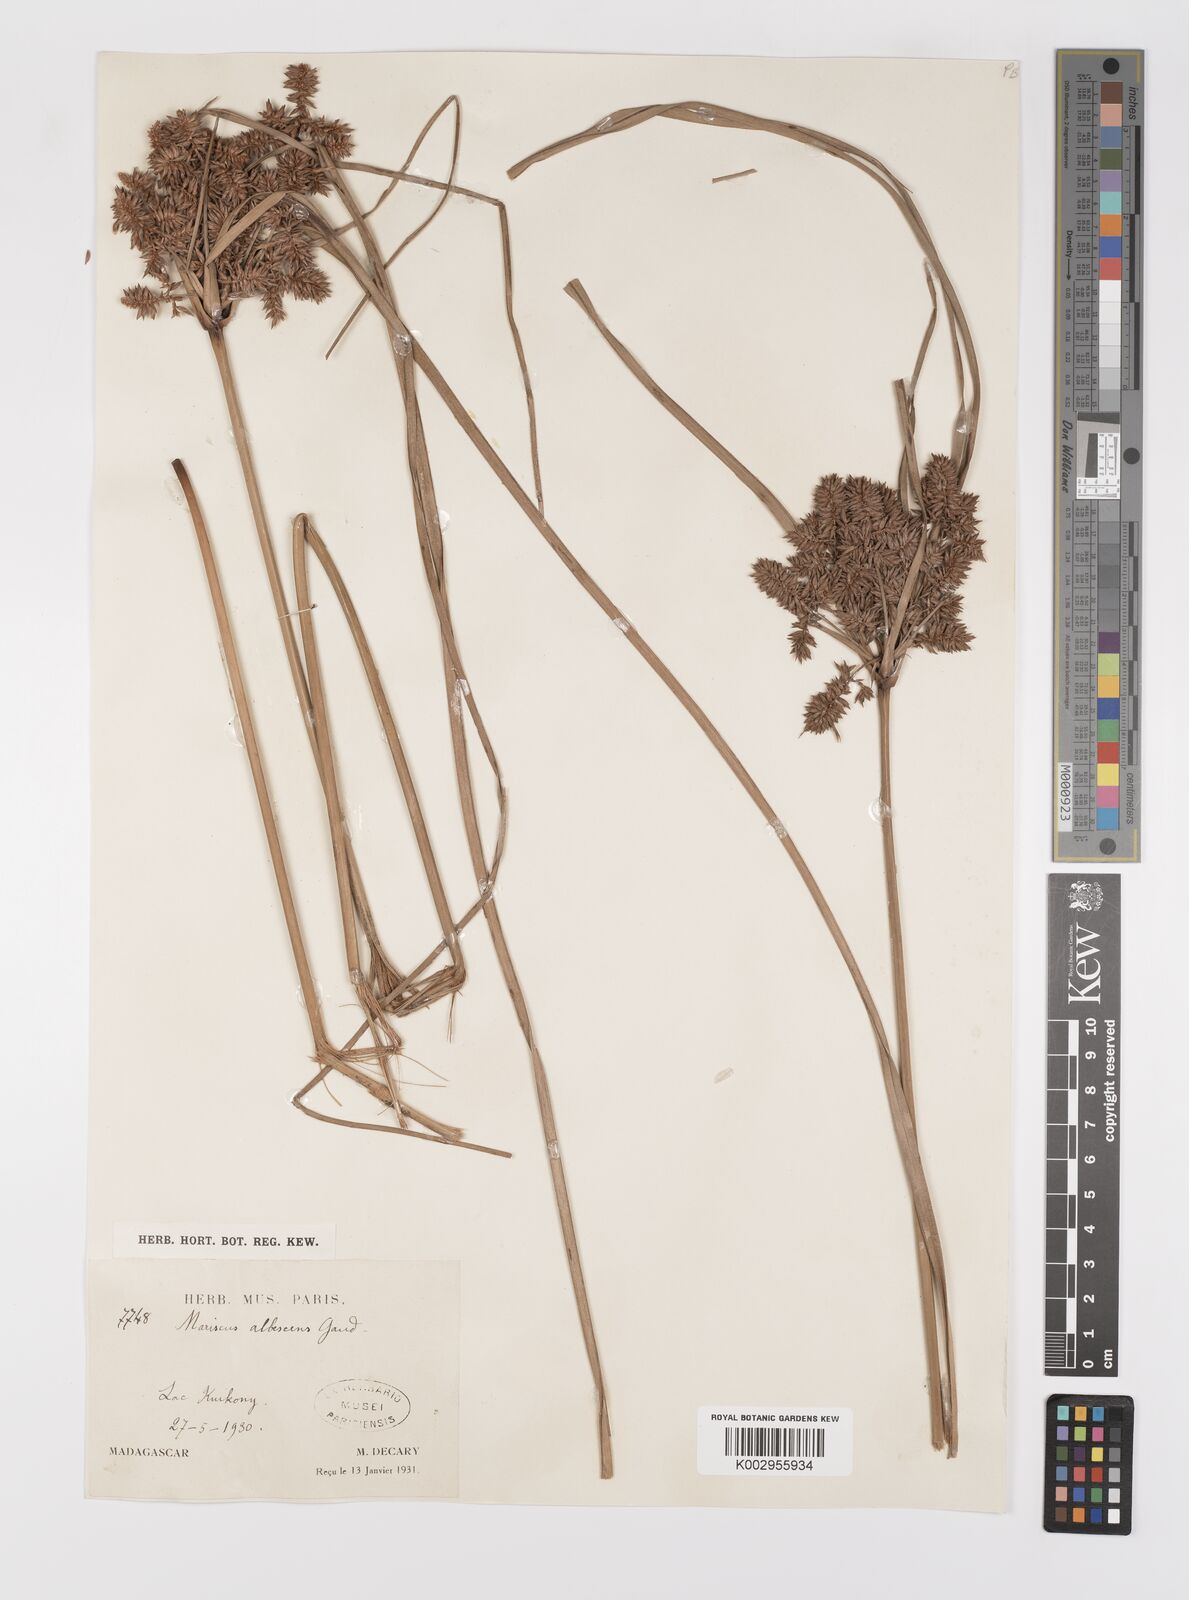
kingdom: Plantae
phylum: Tracheophyta
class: Liliopsida
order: Poales
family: Cyperaceae
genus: Cyperus
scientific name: Cyperus ligularis
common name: Swamp flat sedge
